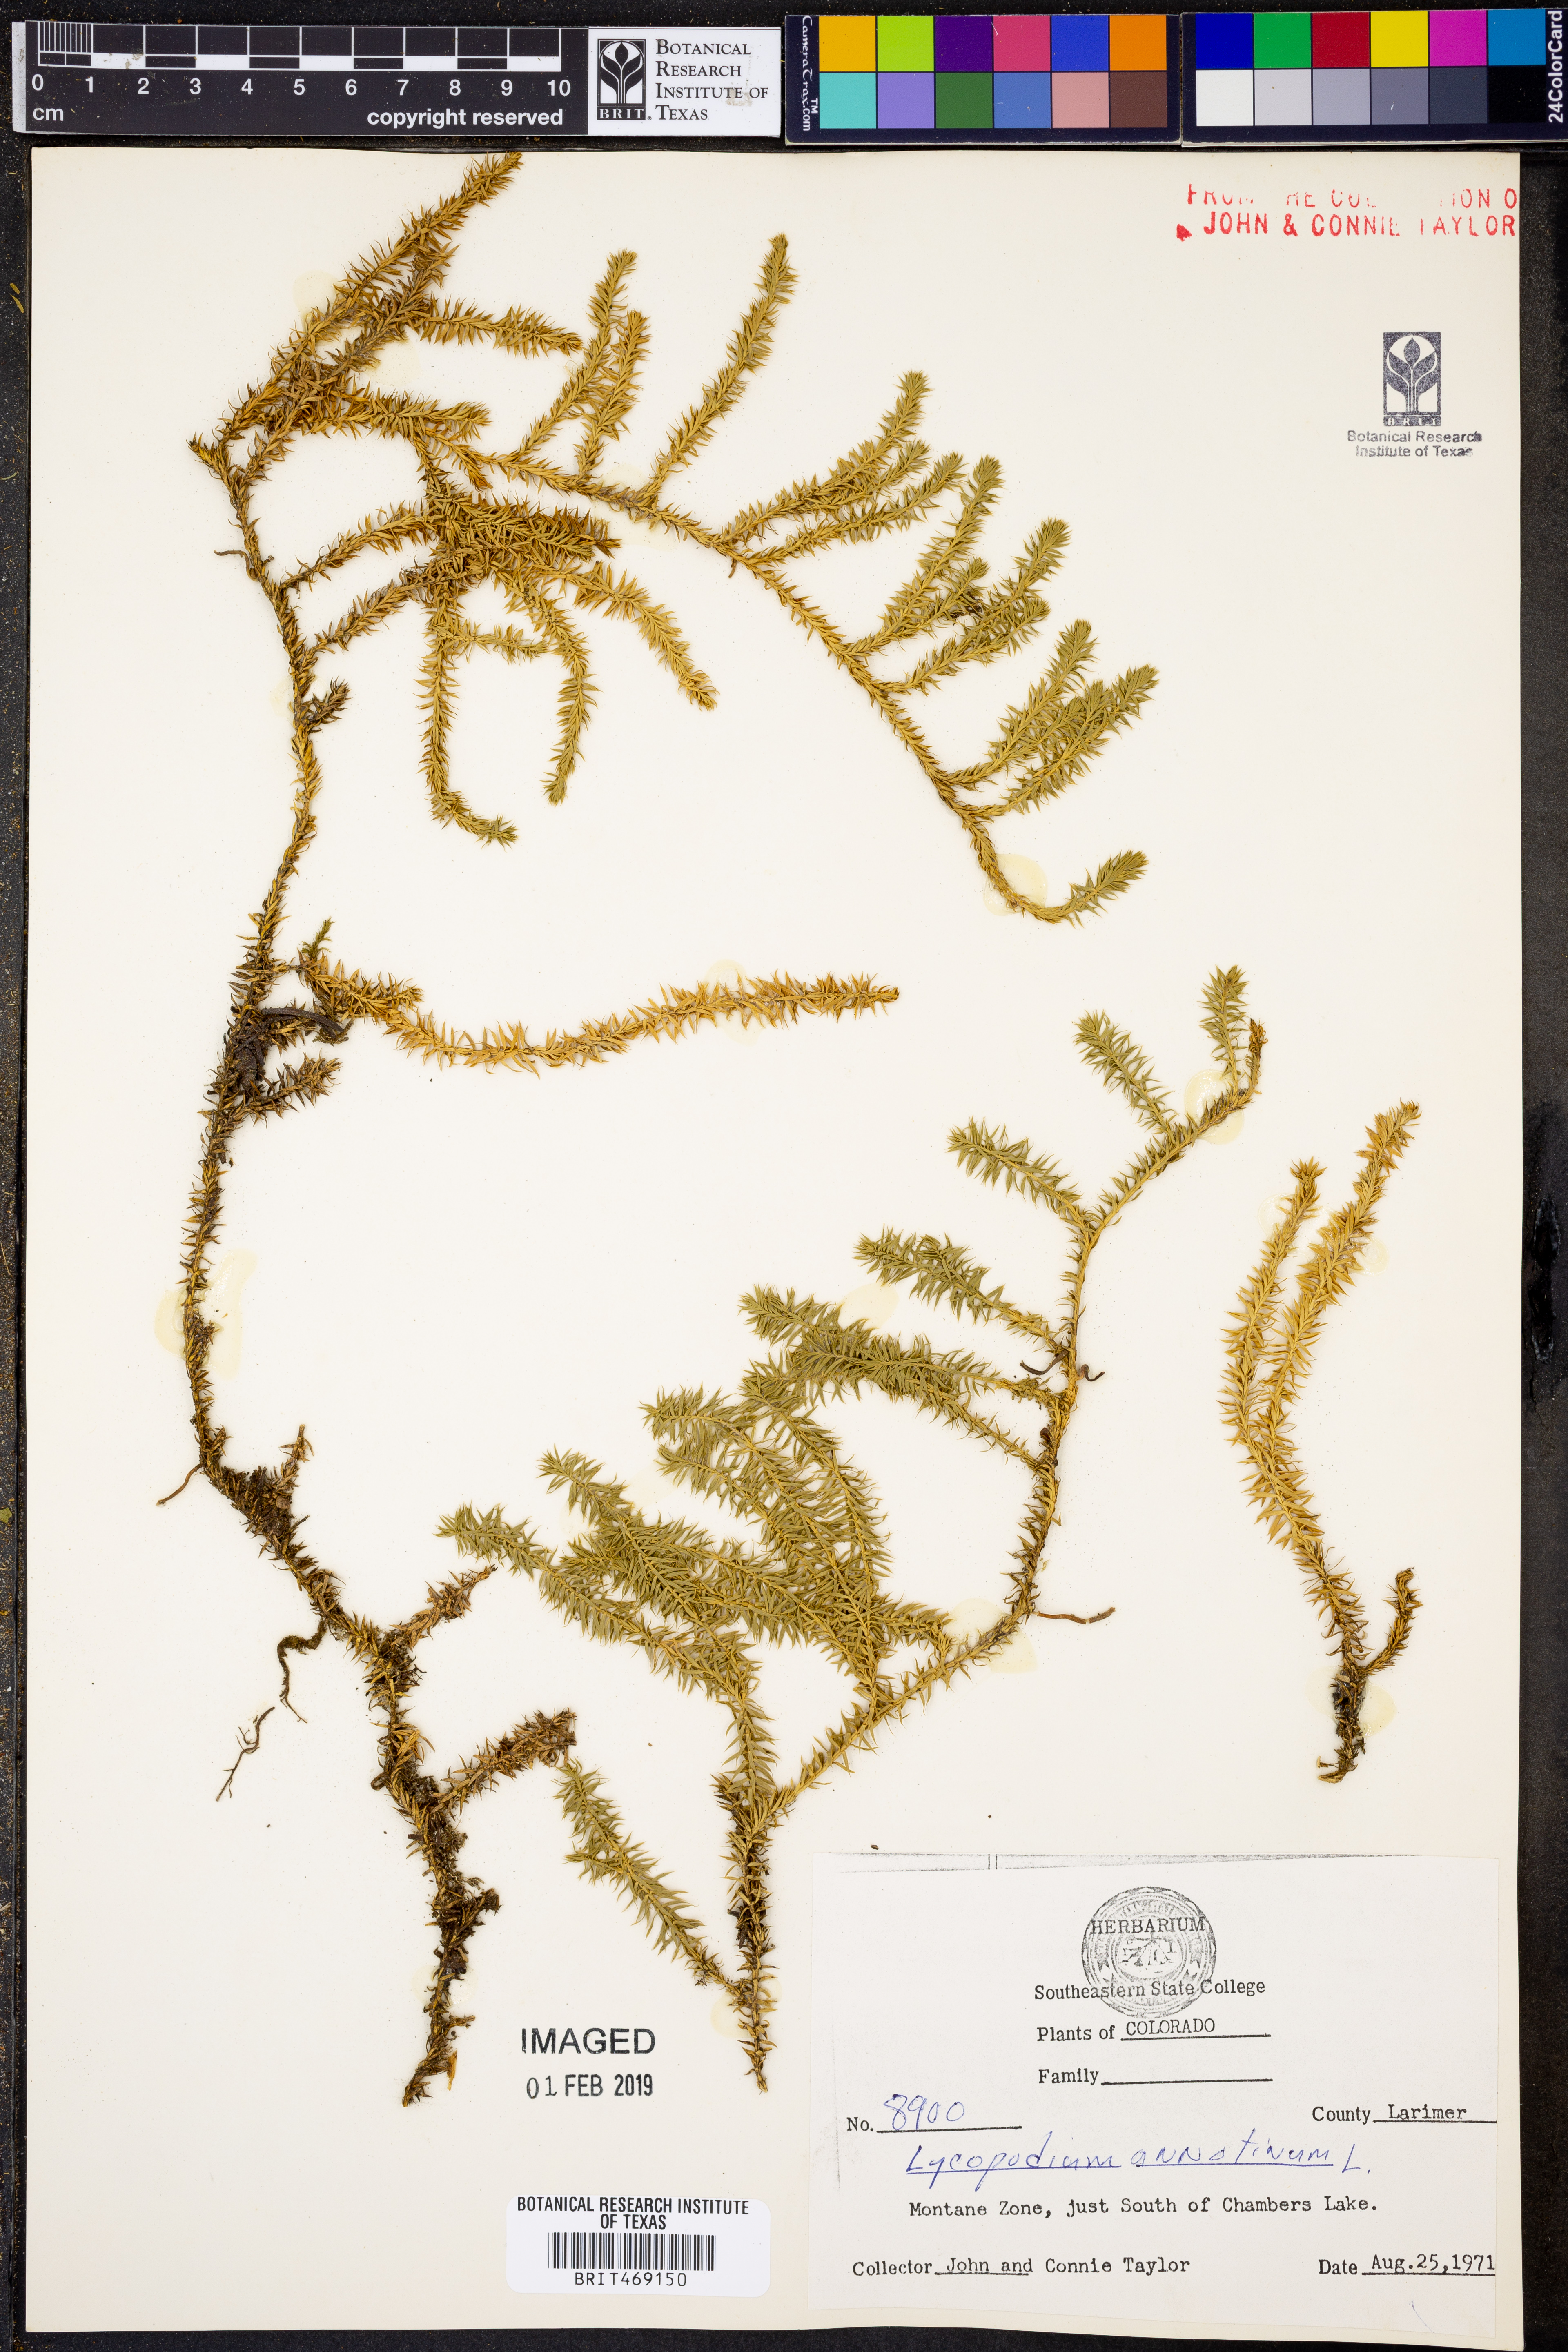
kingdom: Plantae
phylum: Tracheophyta
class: Lycopodiopsida
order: Lycopodiales
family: Lycopodiaceae
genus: Spinulum
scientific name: Spinulum annotinum
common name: Interrupted club-moss
